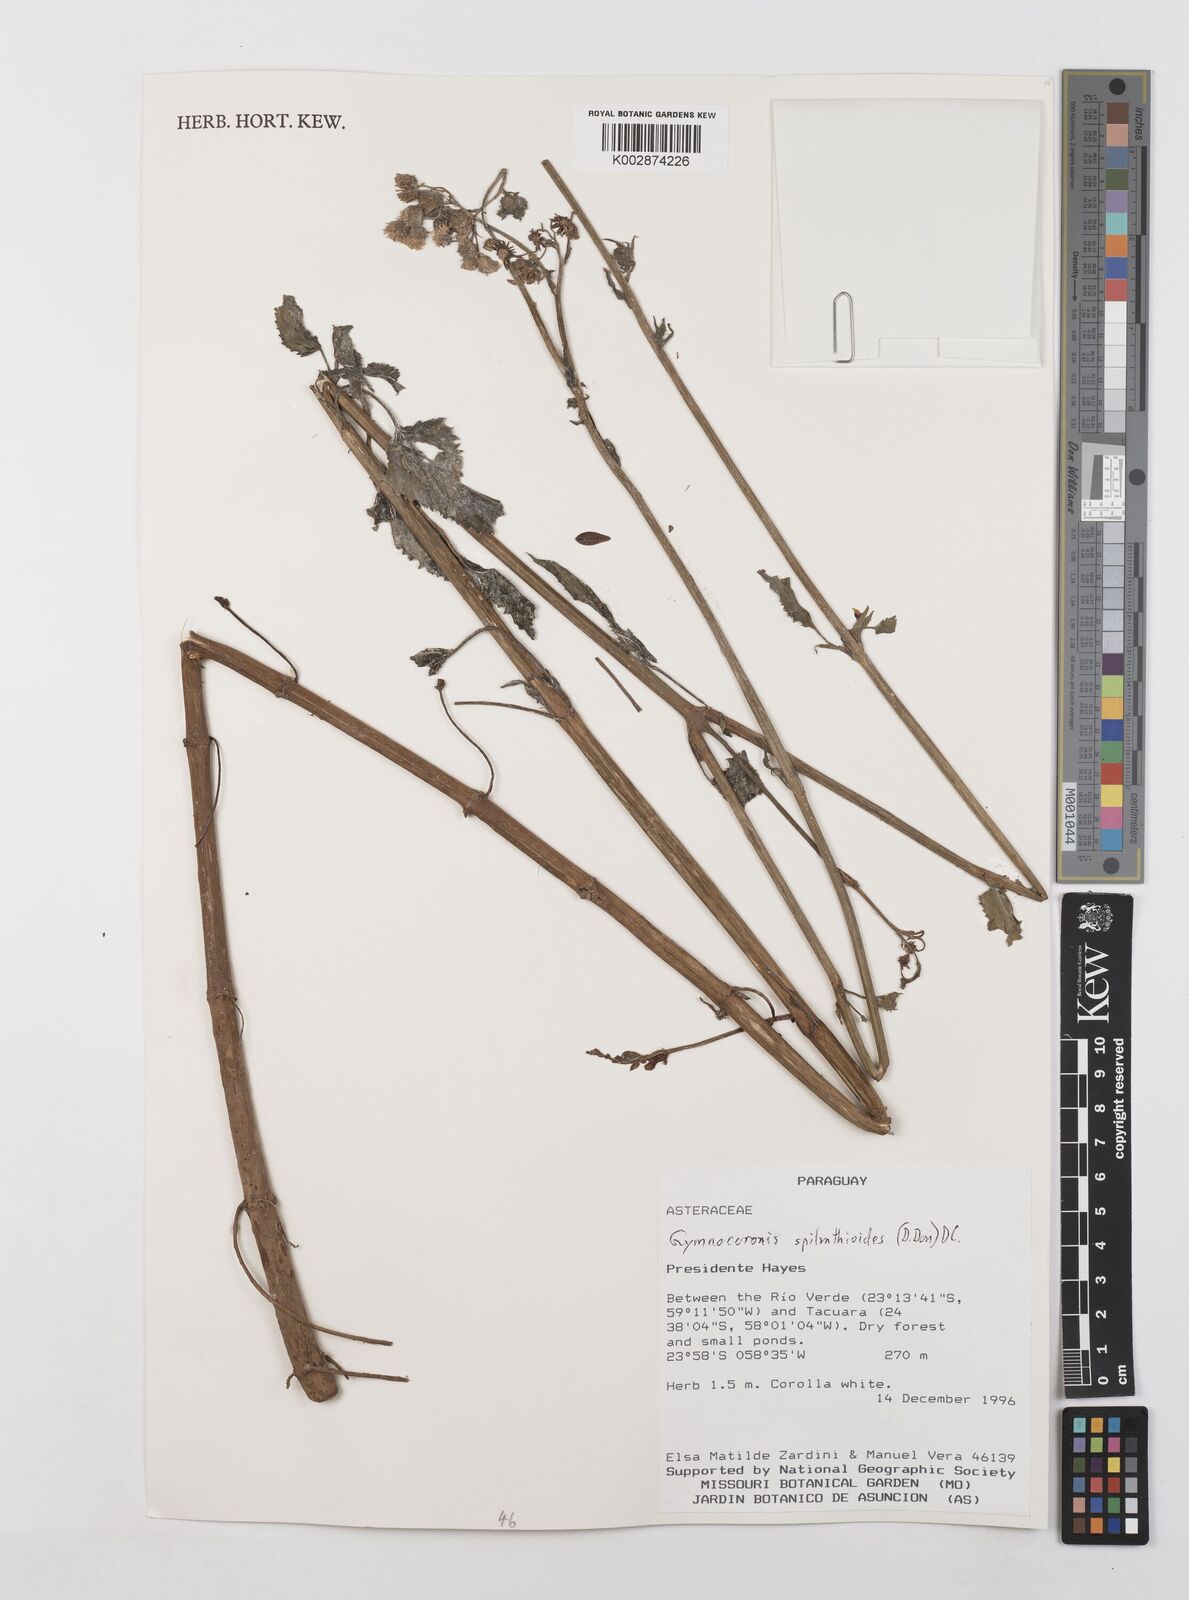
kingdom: Plantae
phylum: Tracheophyta
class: Magnoliopsida
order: Asterales
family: Asteraceae
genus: Gymnocoronis
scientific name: Gymnocoronis spilanthoides
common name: Senegal teaplant
